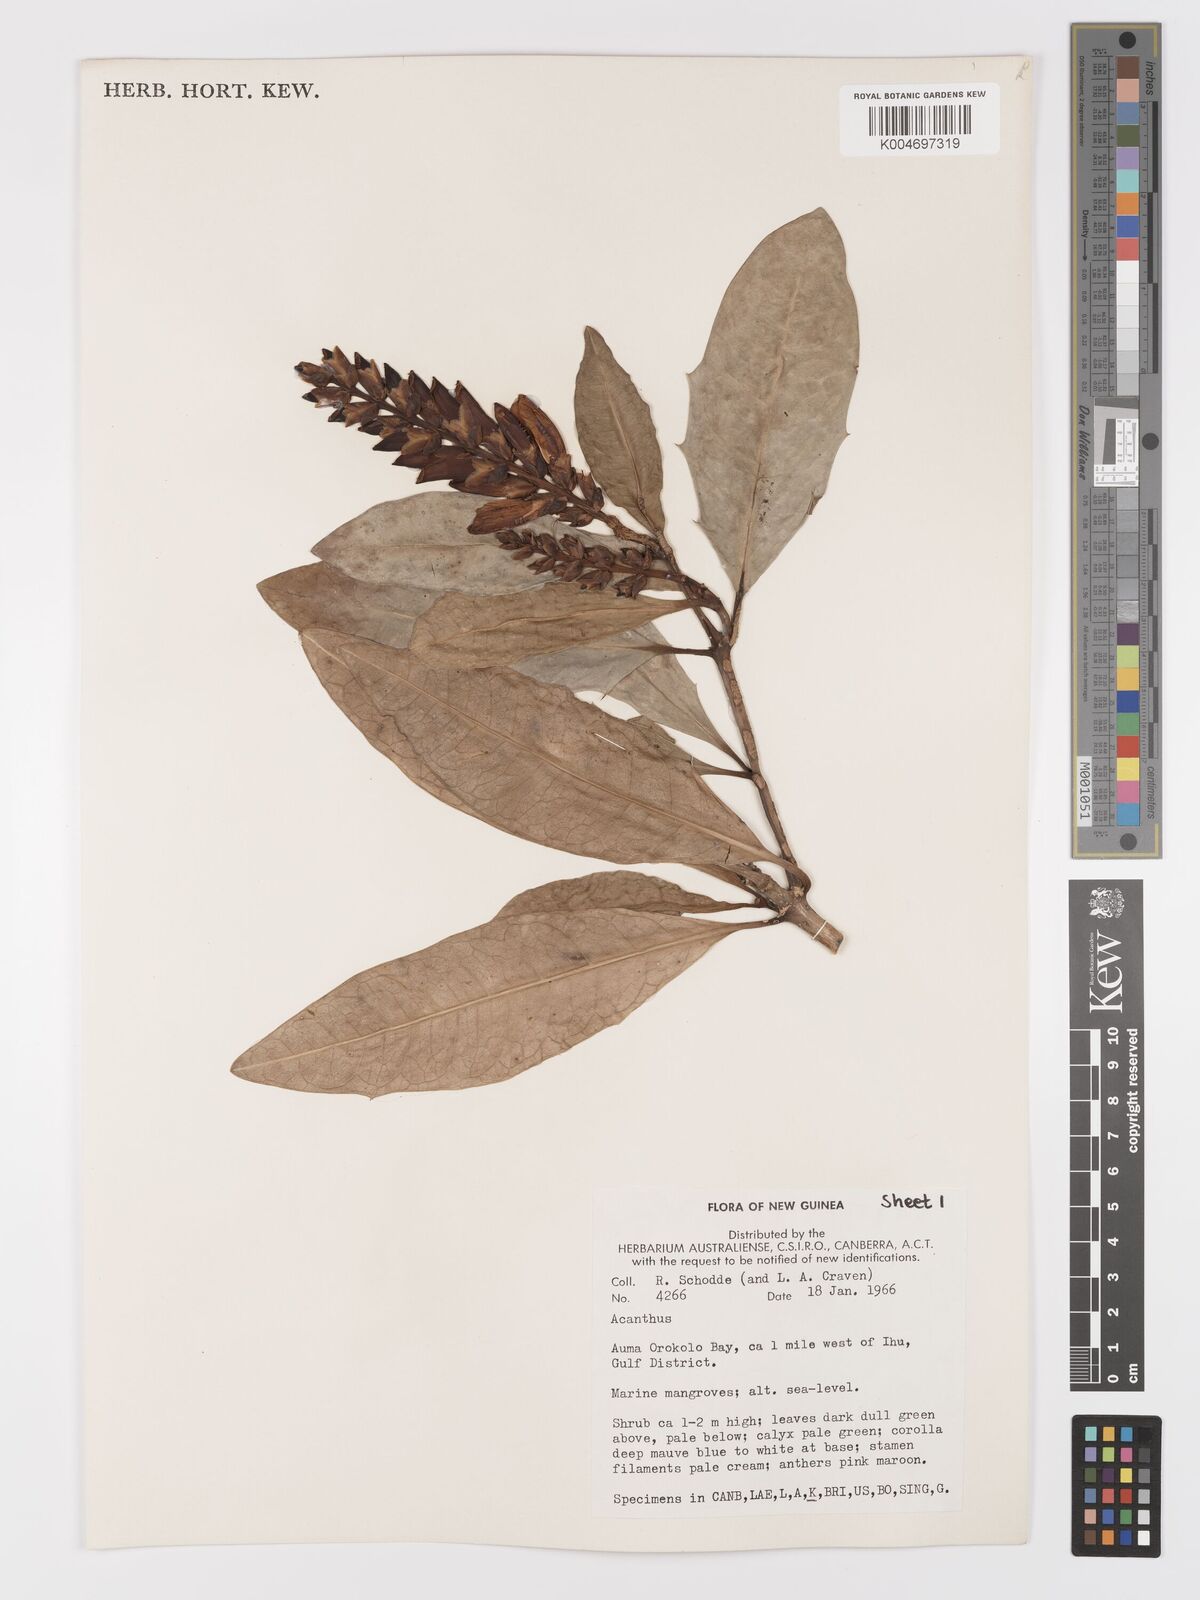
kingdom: Plantae
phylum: Tracheophyta
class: Magnoliopsida
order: Lamiales
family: Acanthaceae
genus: Acanthus
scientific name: Acanthus
